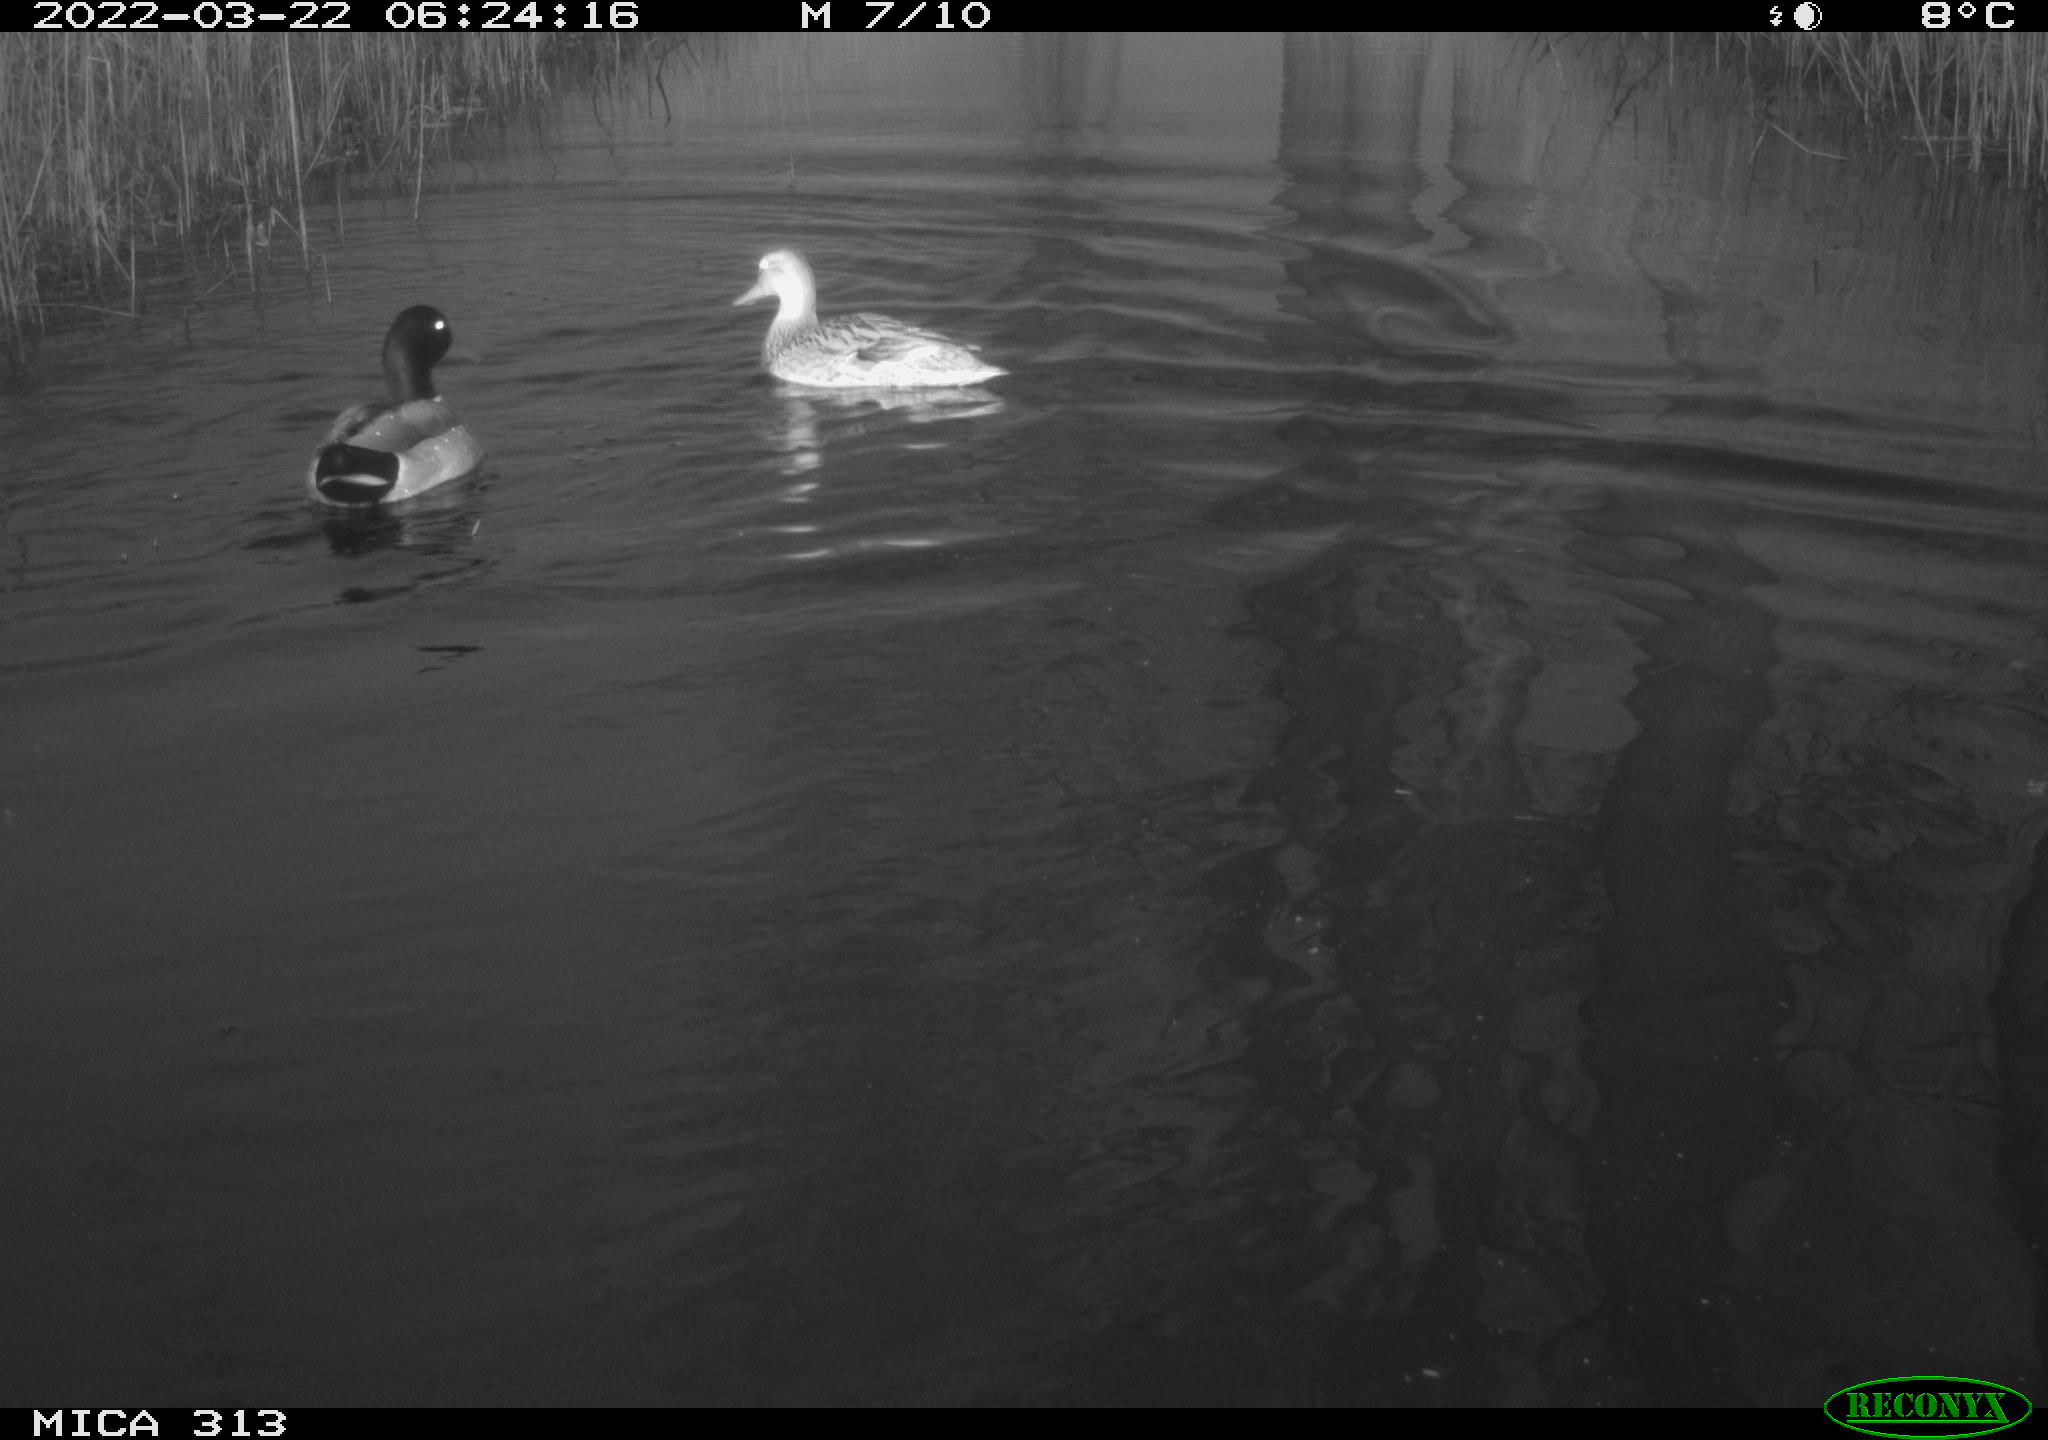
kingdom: Animalia
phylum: Chordata
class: Aves
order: Anseriformes
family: Anatidae
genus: Mareca
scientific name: Mareca strepera
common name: Gadwall
